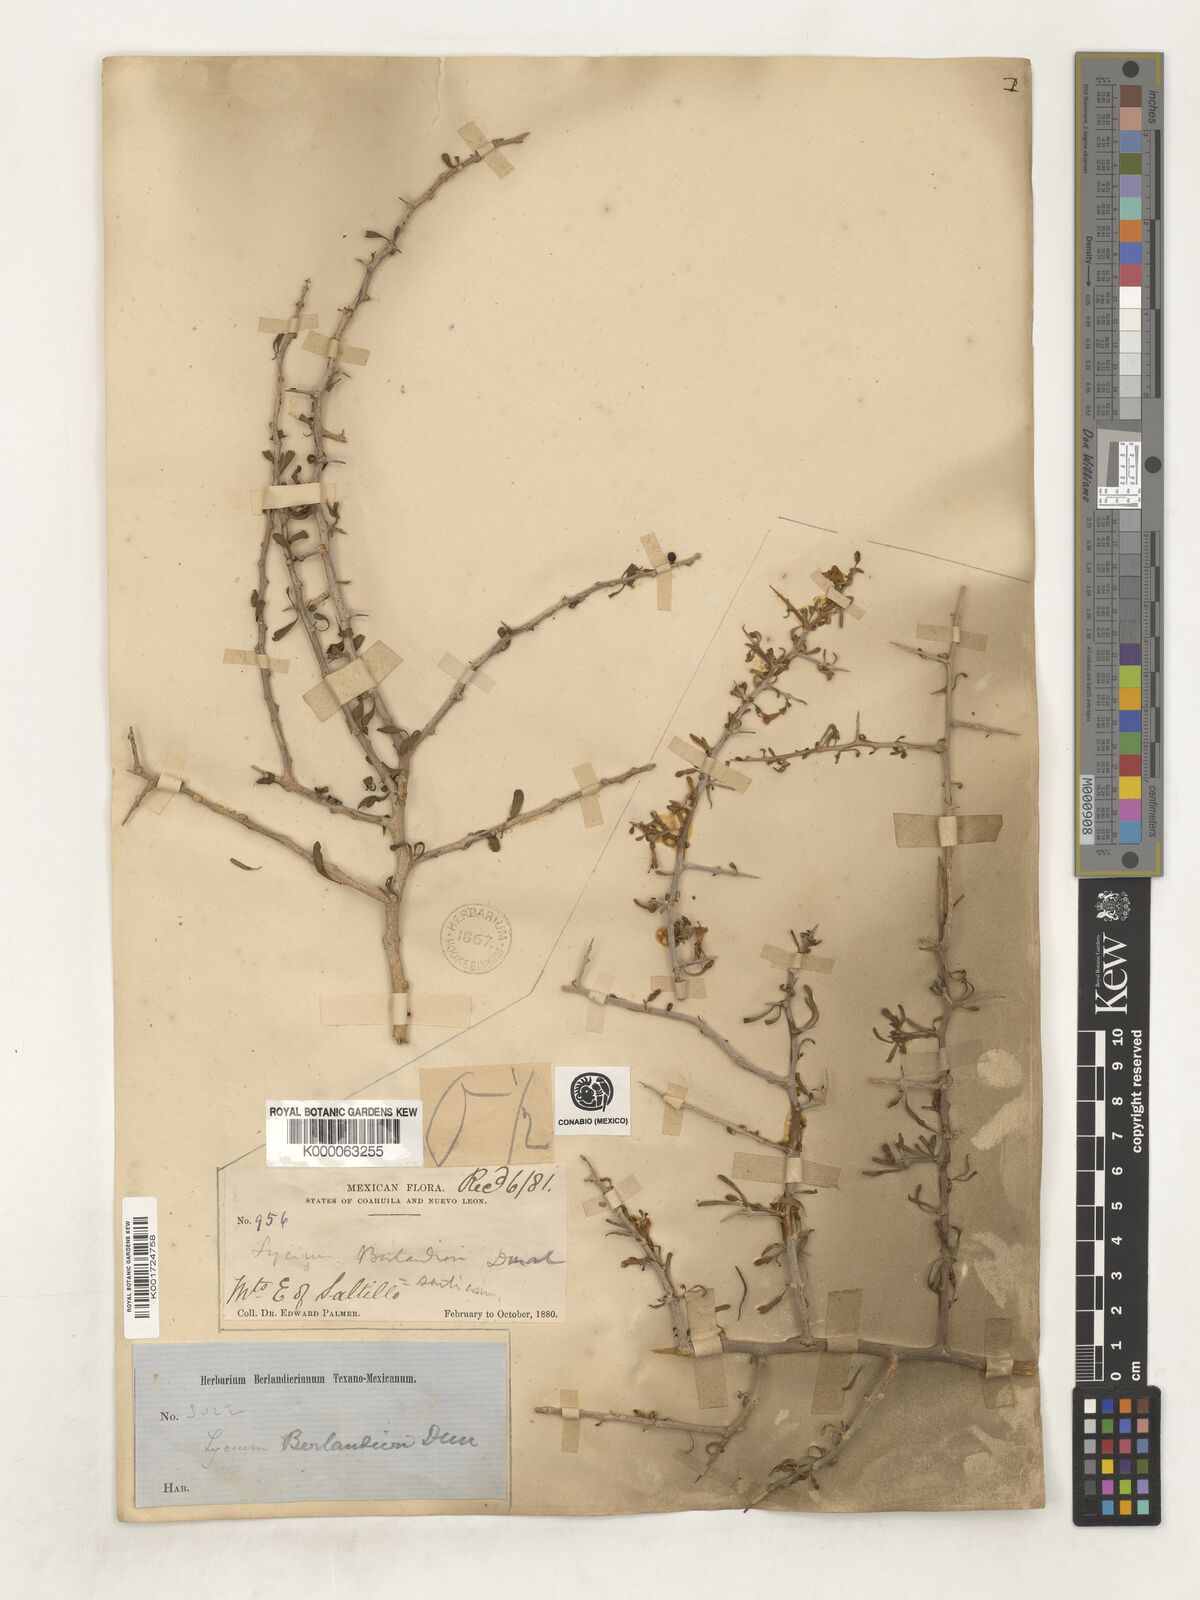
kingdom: Plantae
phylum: Tracheophyta
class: Magnoliopsida
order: Solanales
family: Solanaceae
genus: Lycium
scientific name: Lycium berlandieri
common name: Berlandier wolfberry
